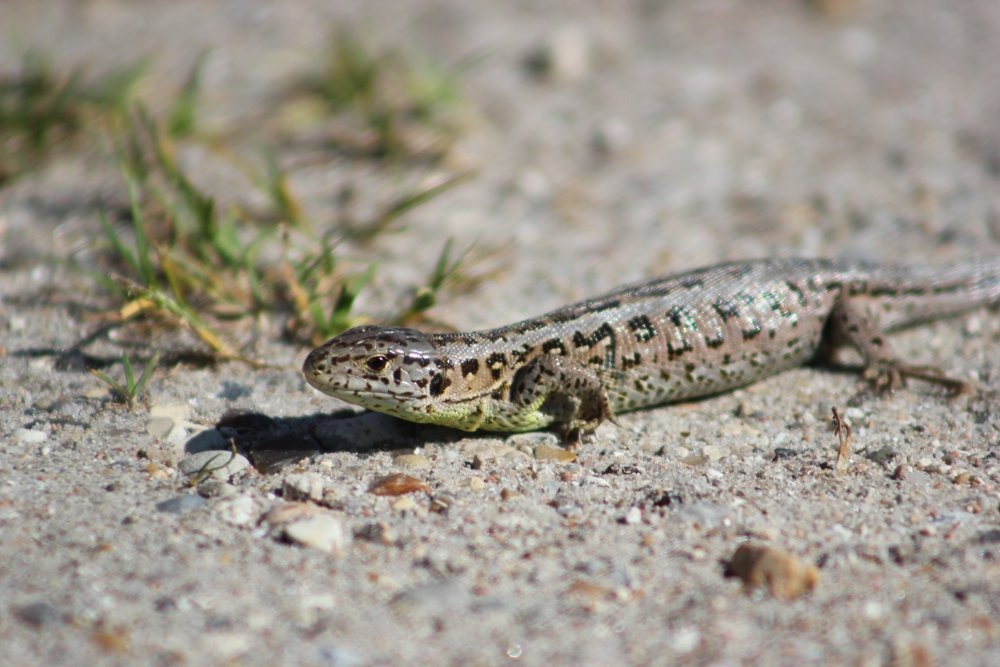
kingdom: Animalia
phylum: Chordata
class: Squamata
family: Lacertidae
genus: Lacerta
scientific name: Lacerta agilis
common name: Markfirben
